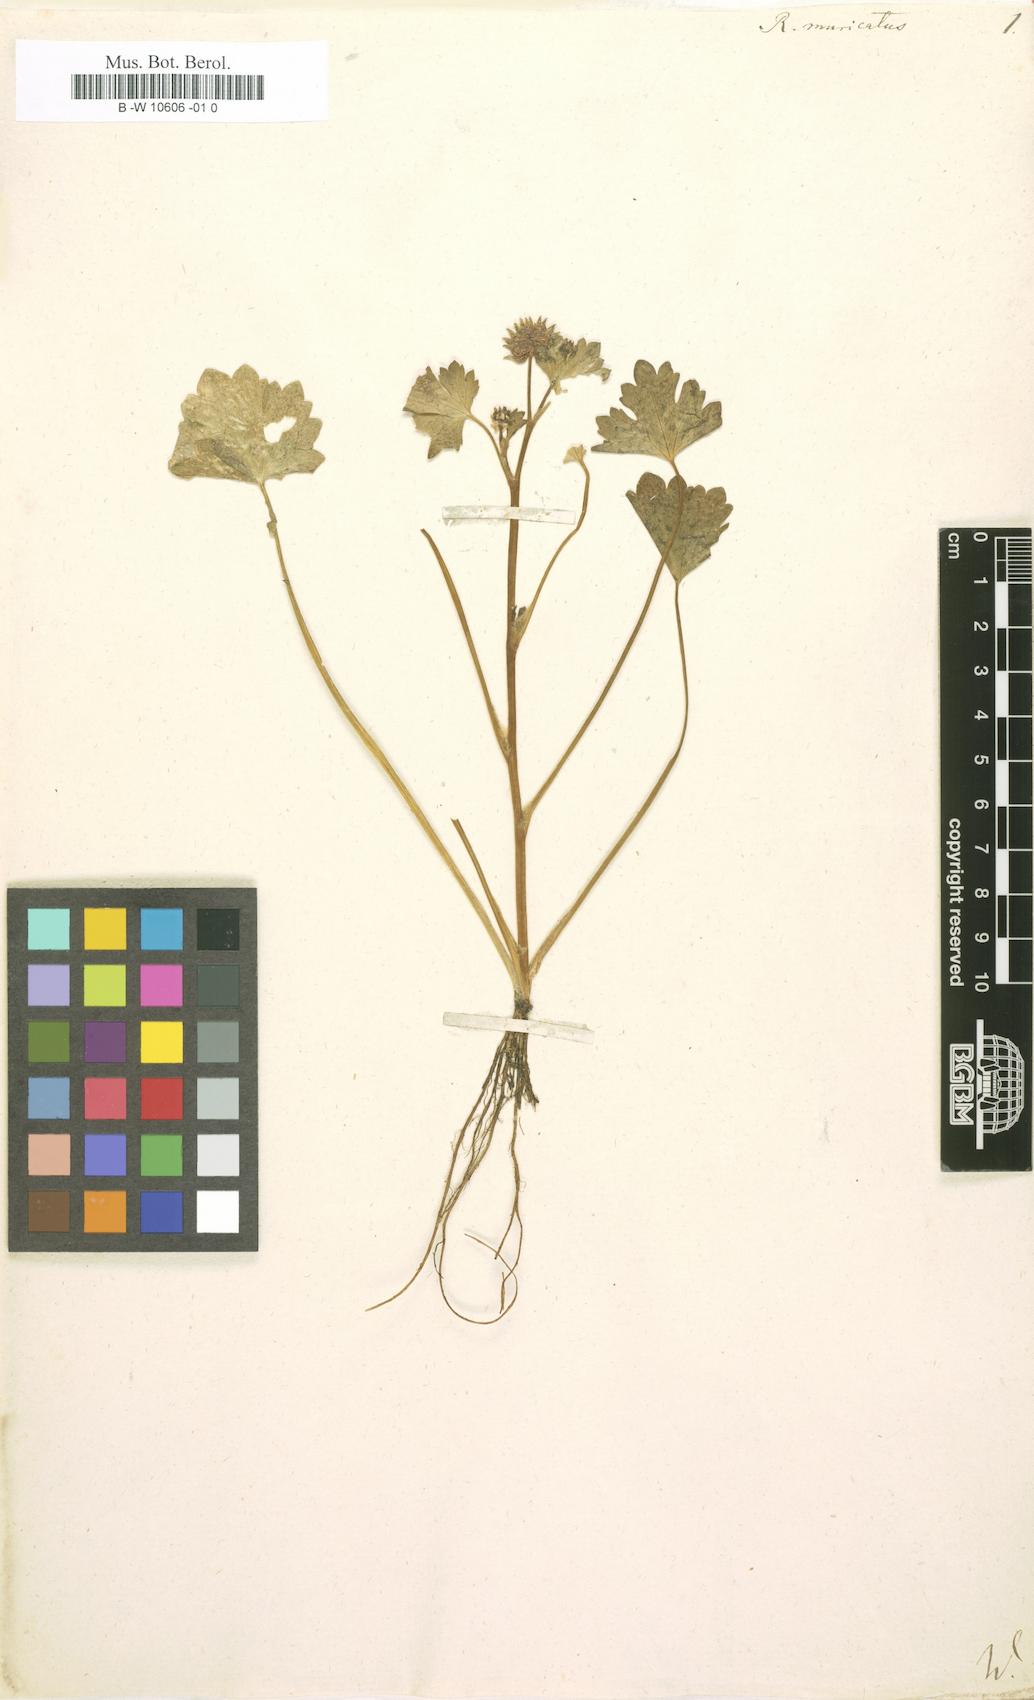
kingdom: Plantae
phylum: Tracheophyta
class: Magnoliopsida
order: Ranunculales
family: Ranunculaceae
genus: Ranunculus
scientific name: Ranunculus muricatus
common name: Rough-fruited buttercup
